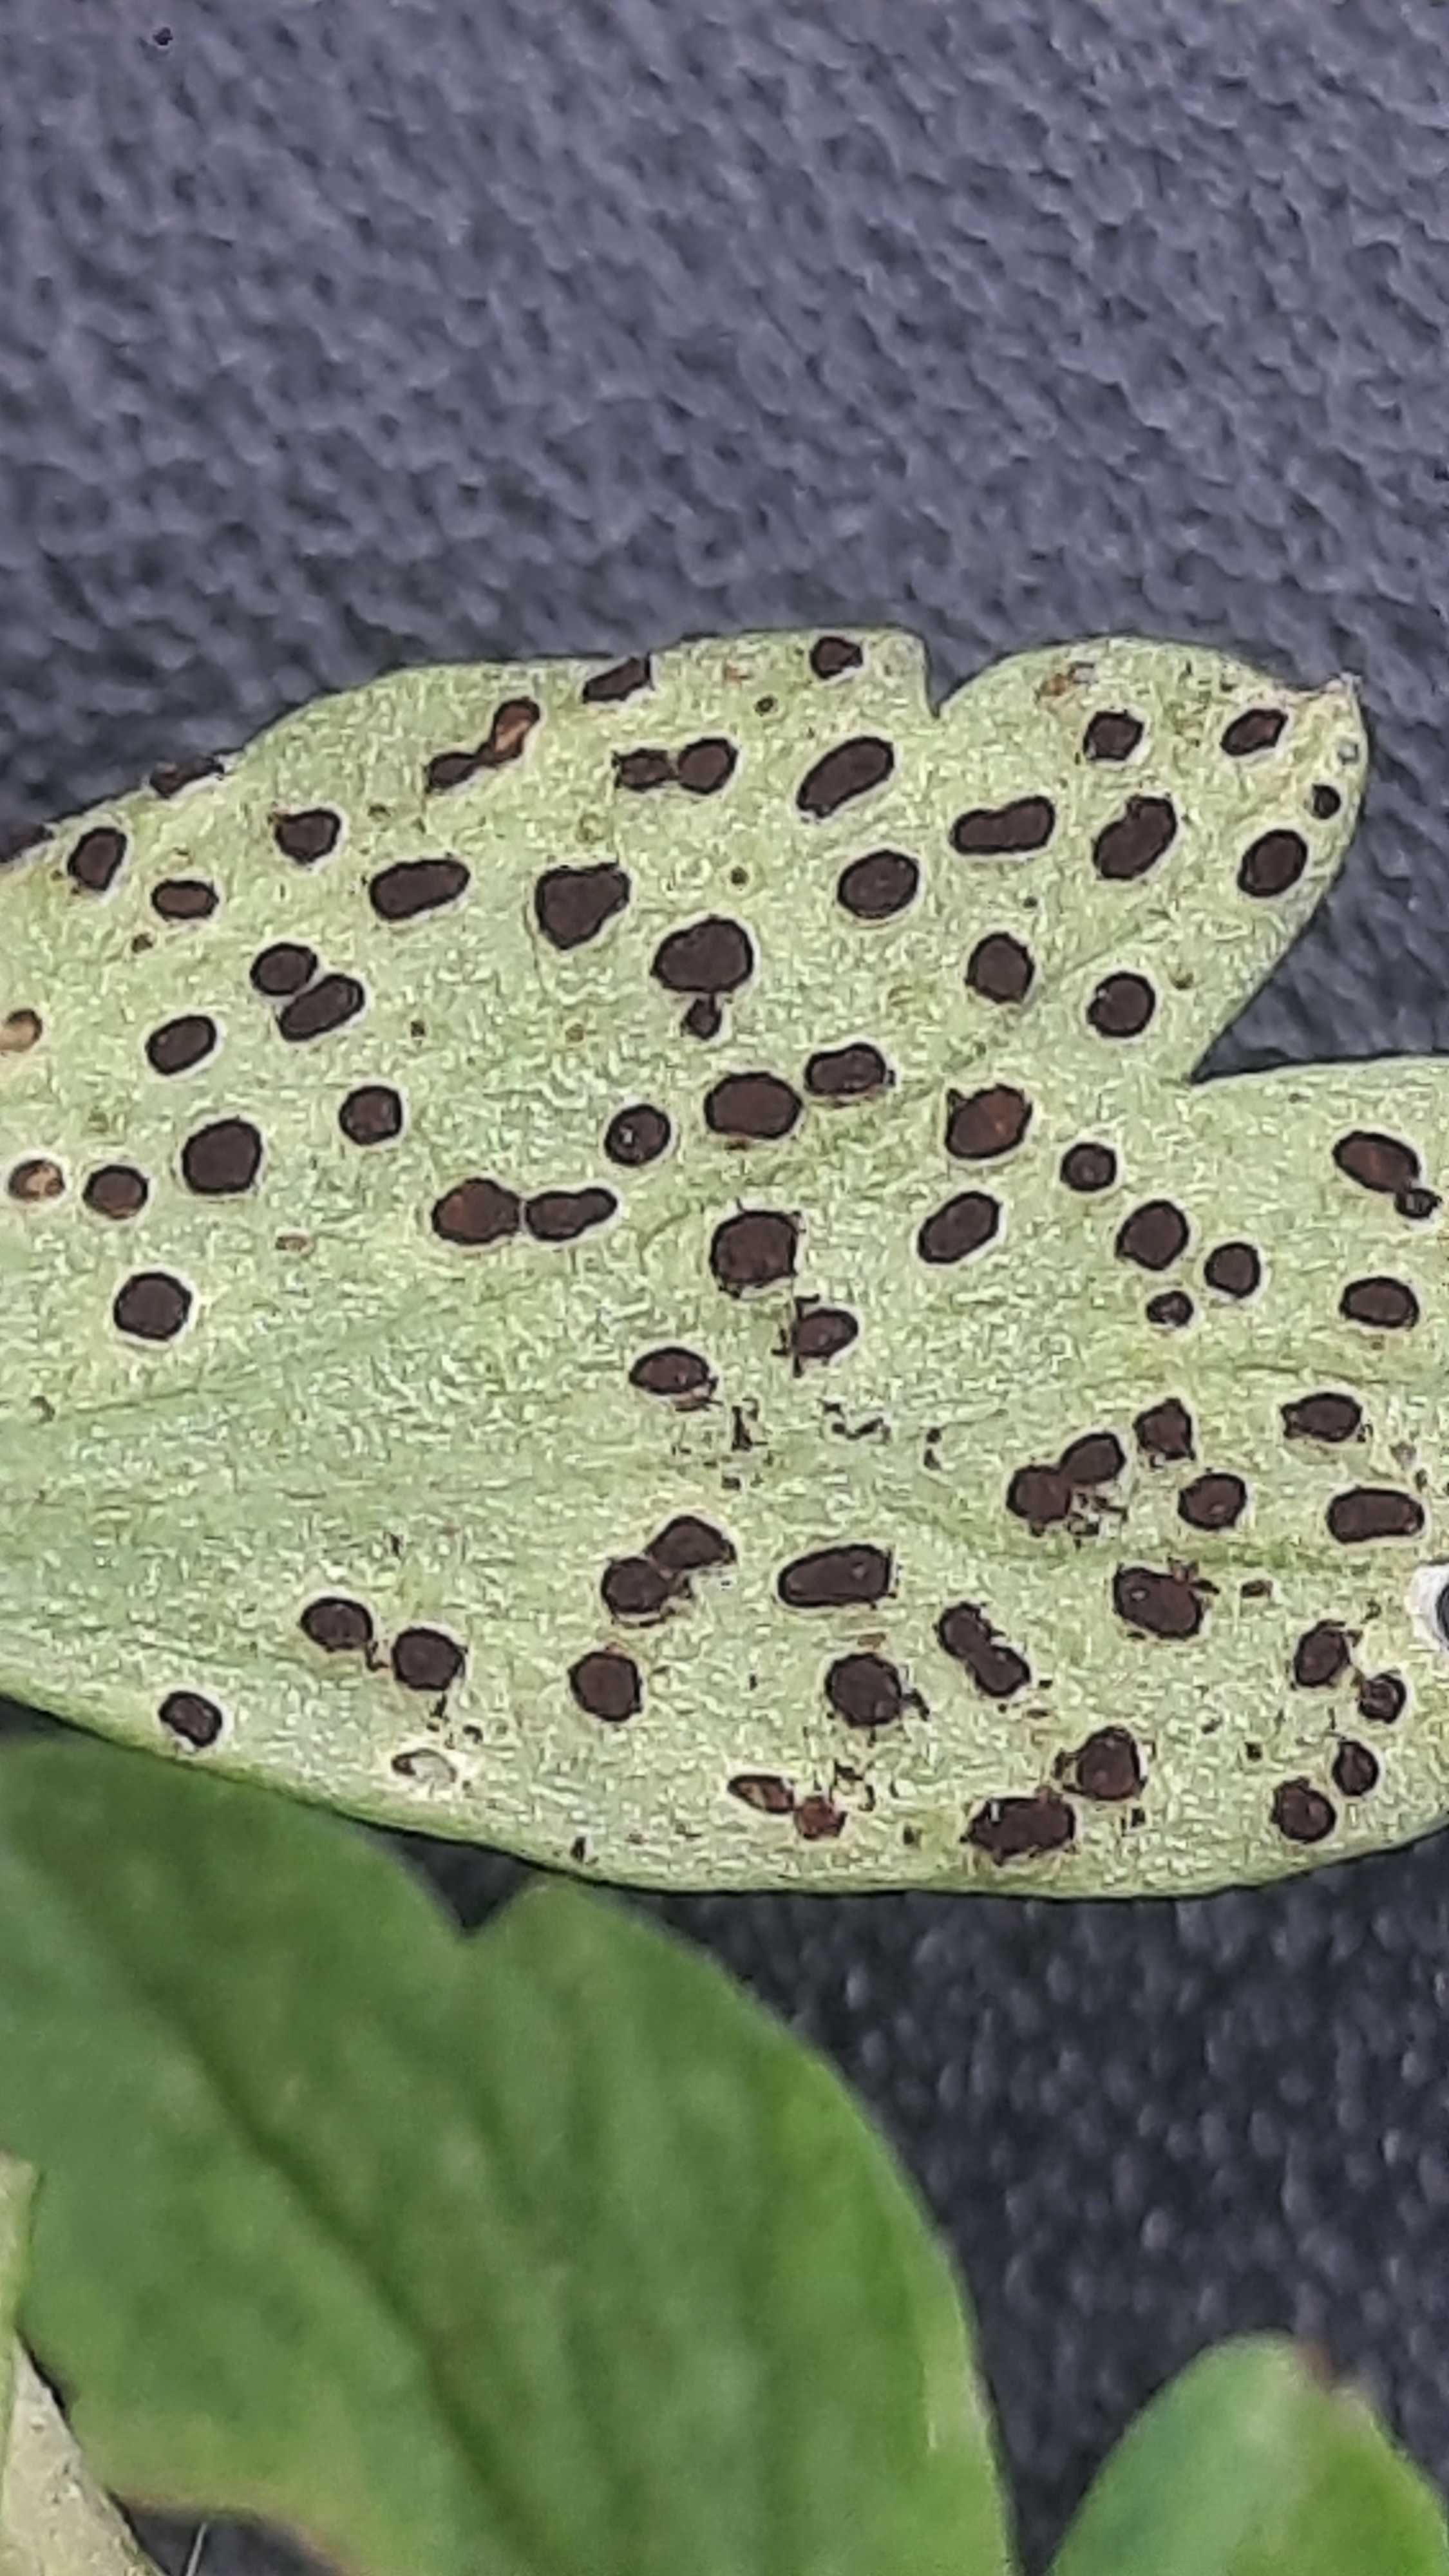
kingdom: Fungi
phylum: Basidiomycota
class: Pucciniomycetes
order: Pucciniales
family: Tranzscheliaceae
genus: Tranzschelia
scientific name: Tranzschelia anemones
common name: anemone-knæksporerust
